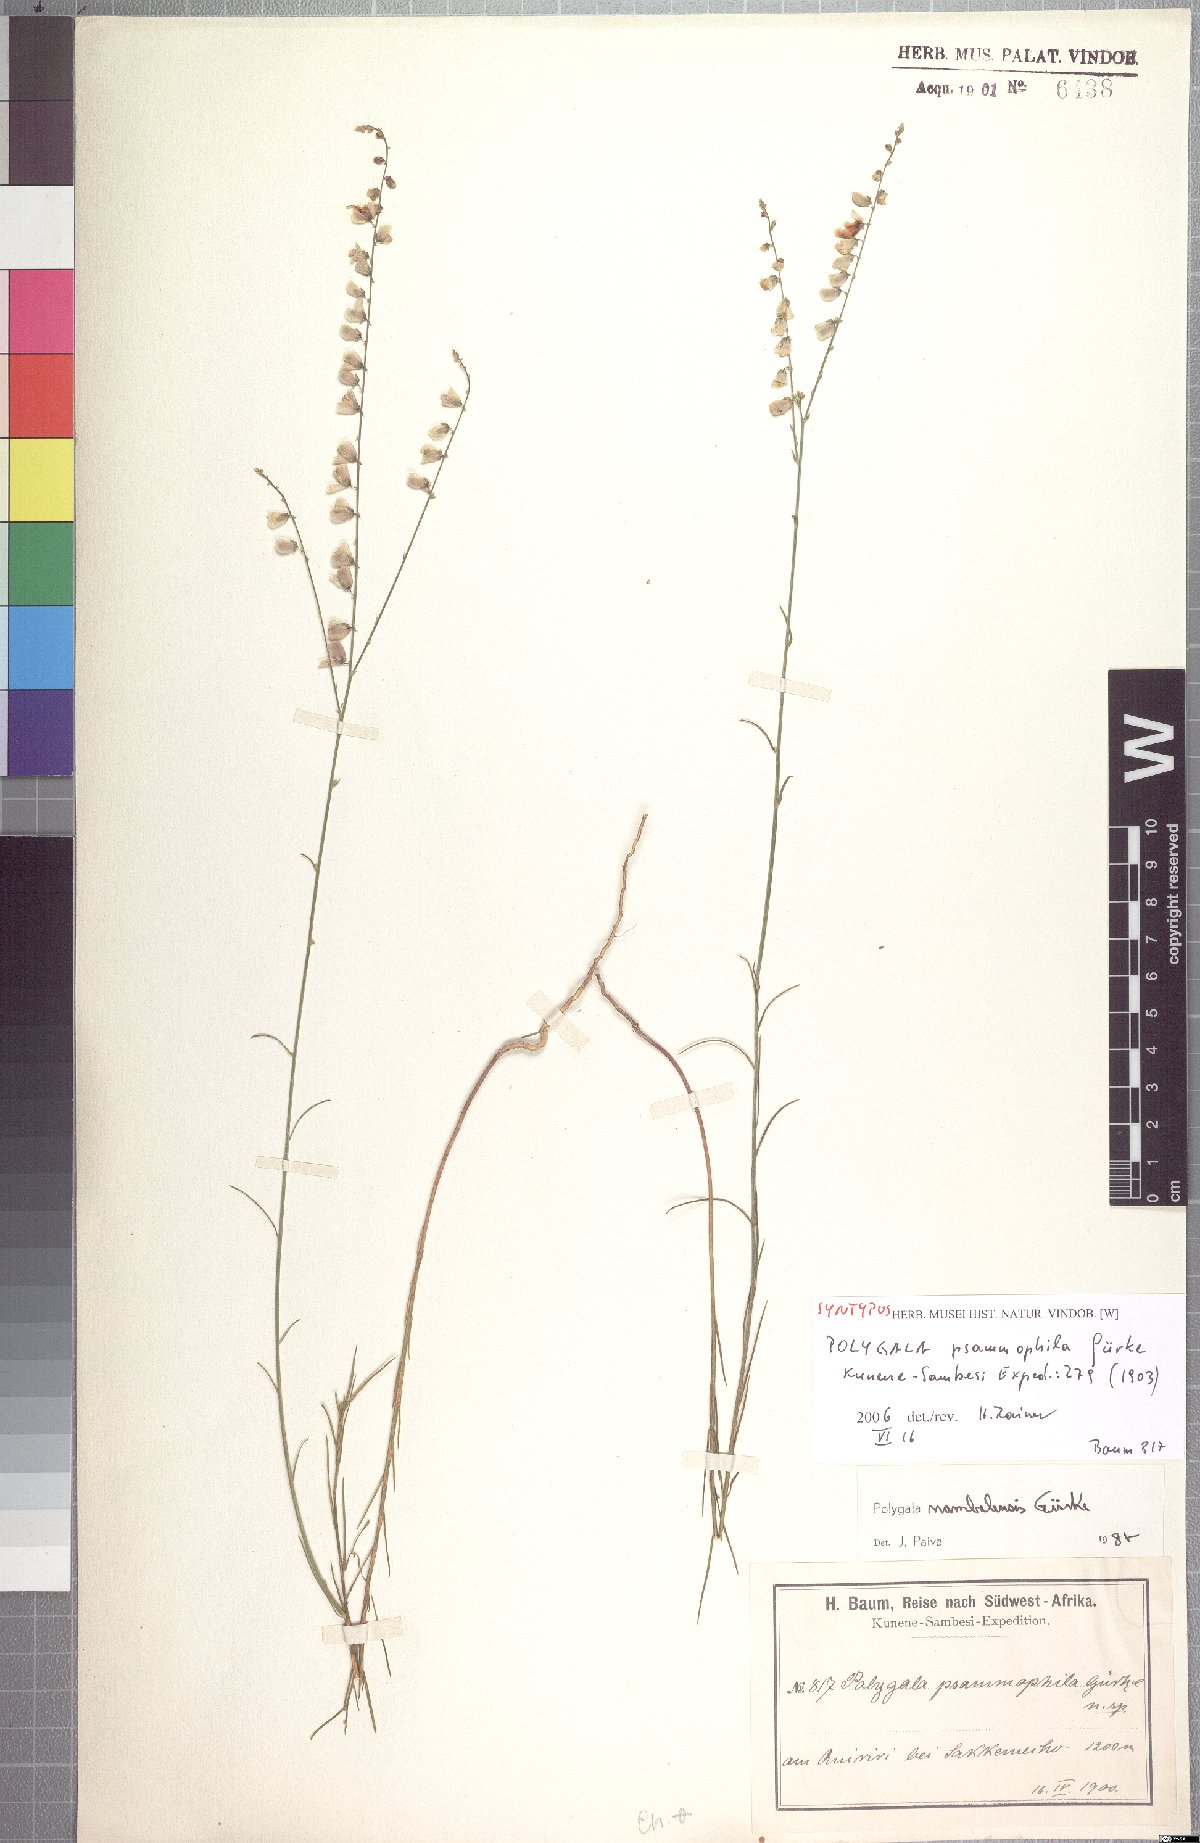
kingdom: Plantae
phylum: Tracheophyta
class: Magnoliopsida
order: Fabales
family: Polygalaceae
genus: Polygala
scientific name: Polygala nambalensis
